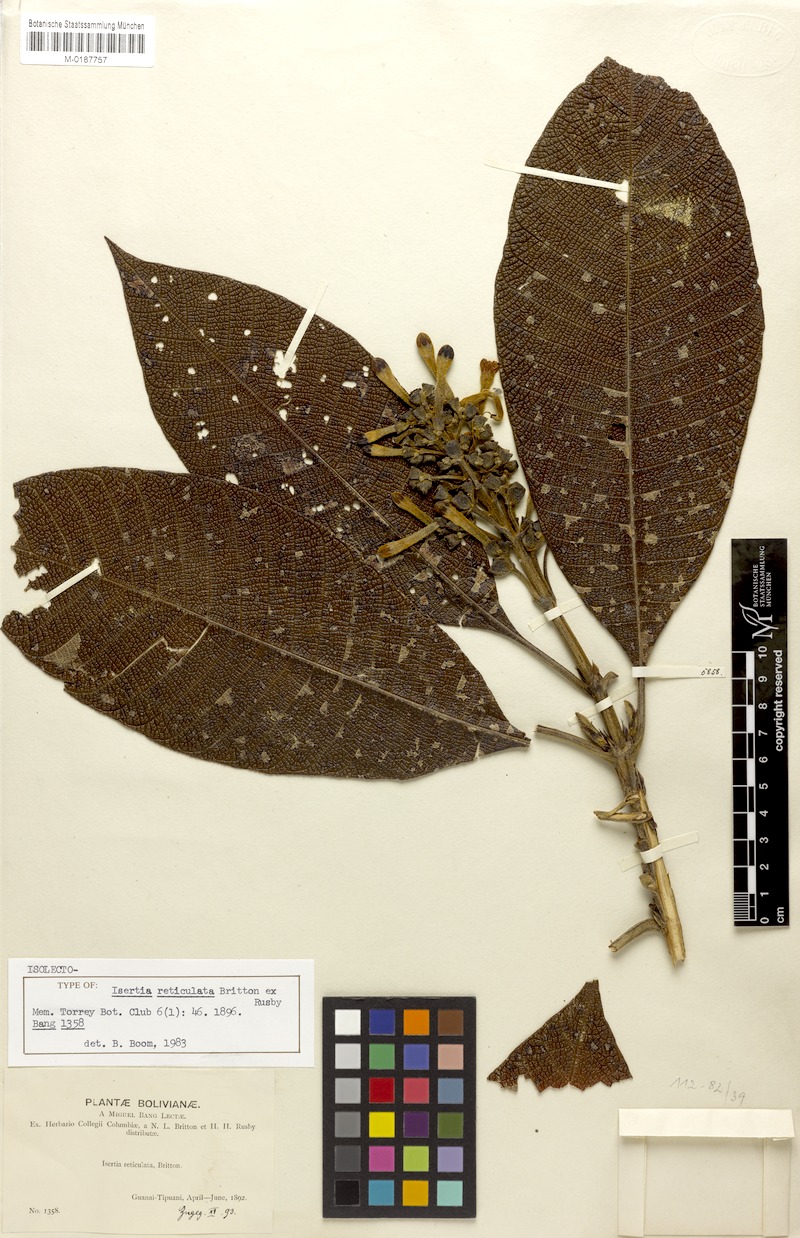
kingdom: Plantae
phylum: Tracheophyta
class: Magnoliopsida
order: Gentianales
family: Rubiaceae
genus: Isertia
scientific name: Isertia reticulata
